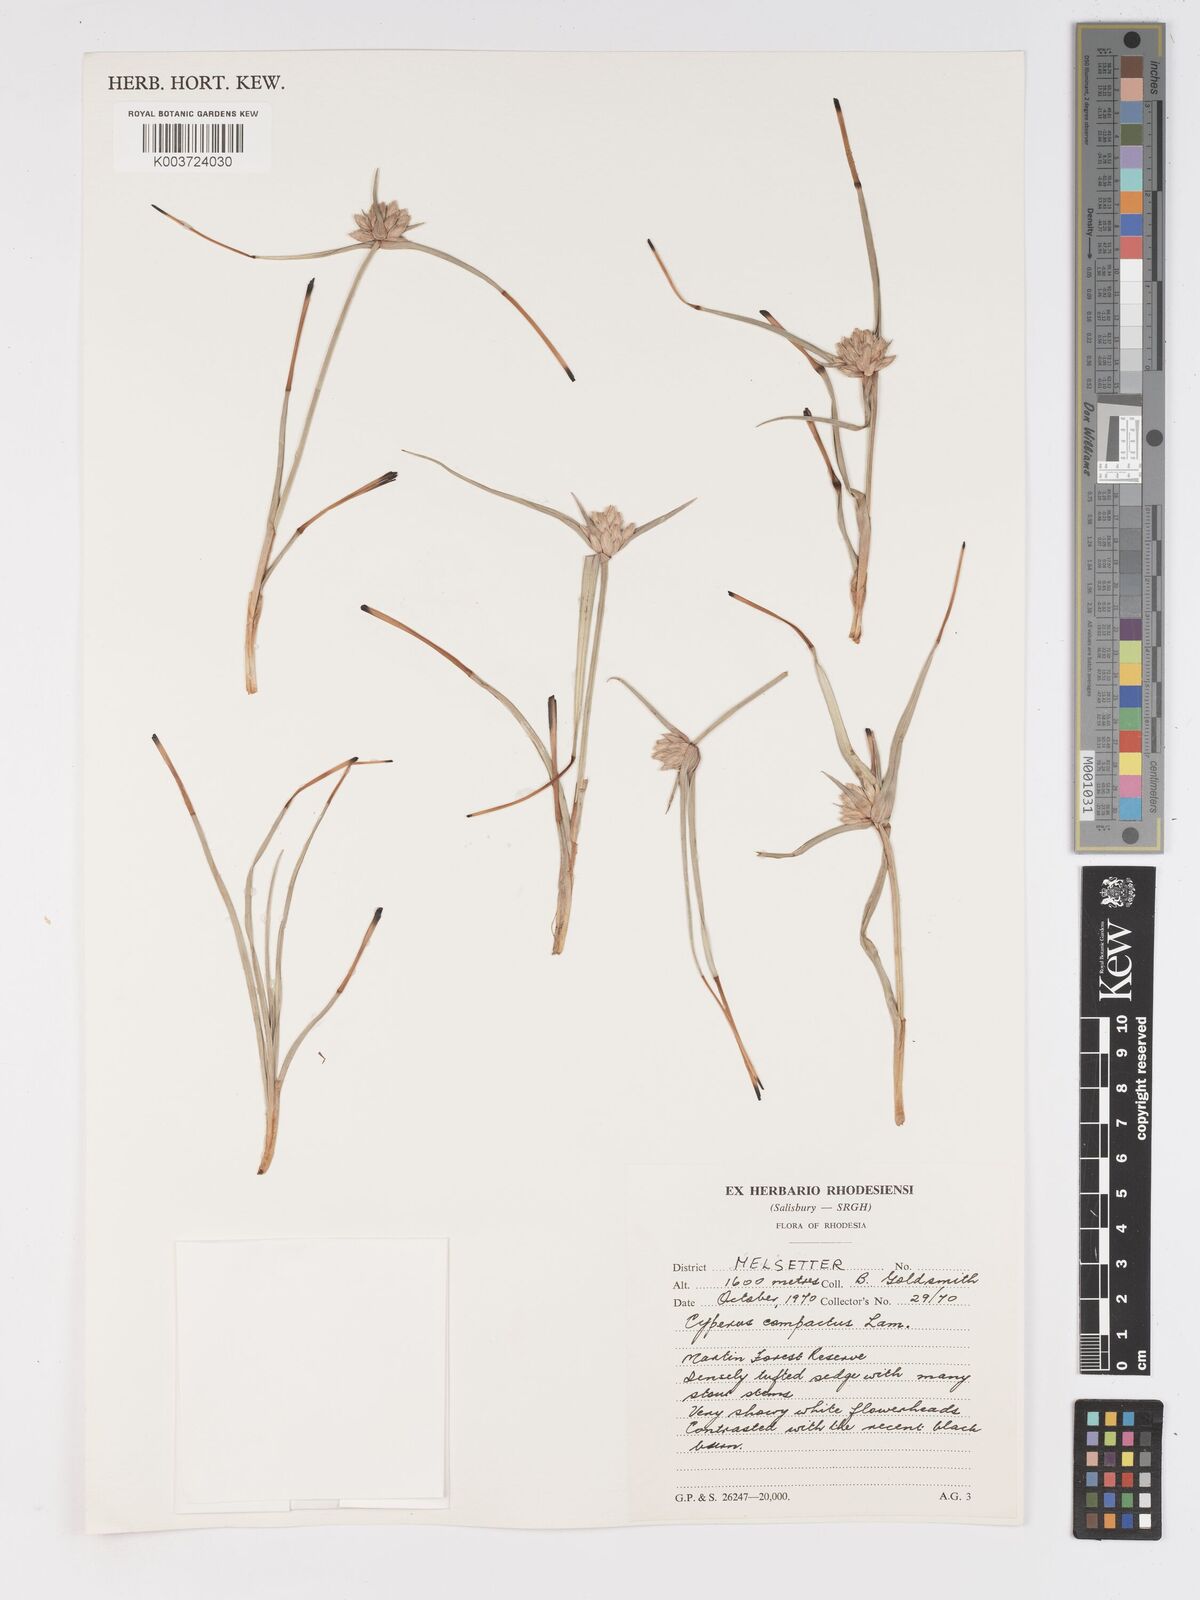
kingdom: Plantae
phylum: Tracheophyta
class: Liliopsida
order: Poales
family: Cyperaceae
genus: Cyperus
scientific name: Cyperus niveus
